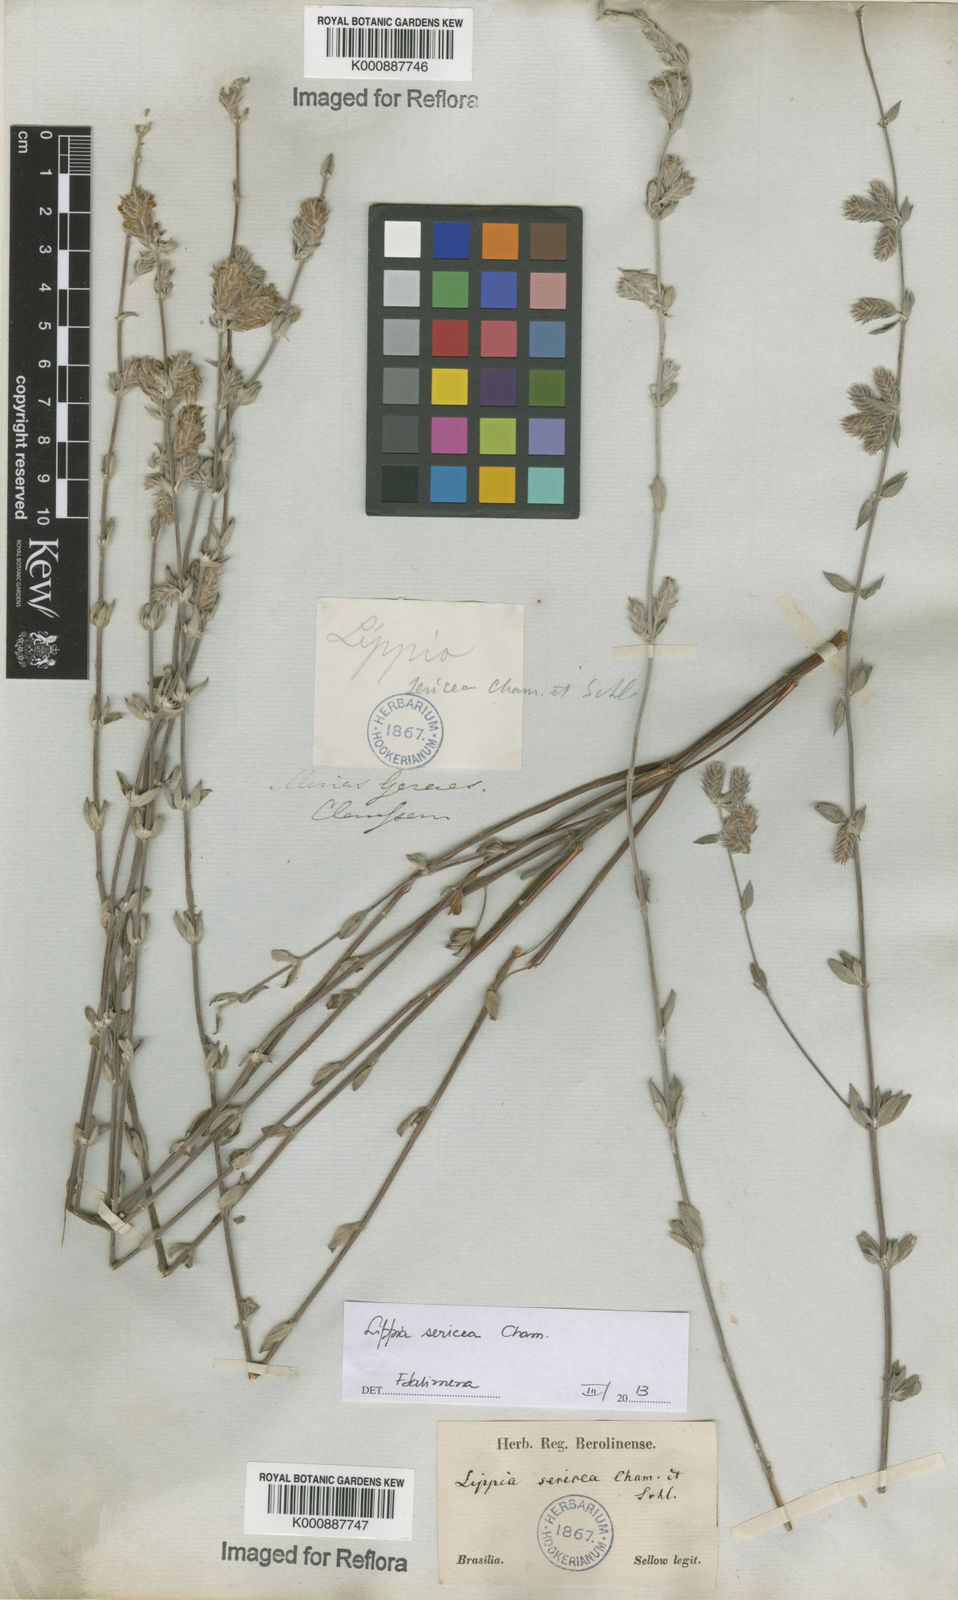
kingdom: Plantae
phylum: Tracheophyta
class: Magnoliopsida
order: Lamiales
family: Verbenaceae
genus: Lippia
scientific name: Lippia sericea
